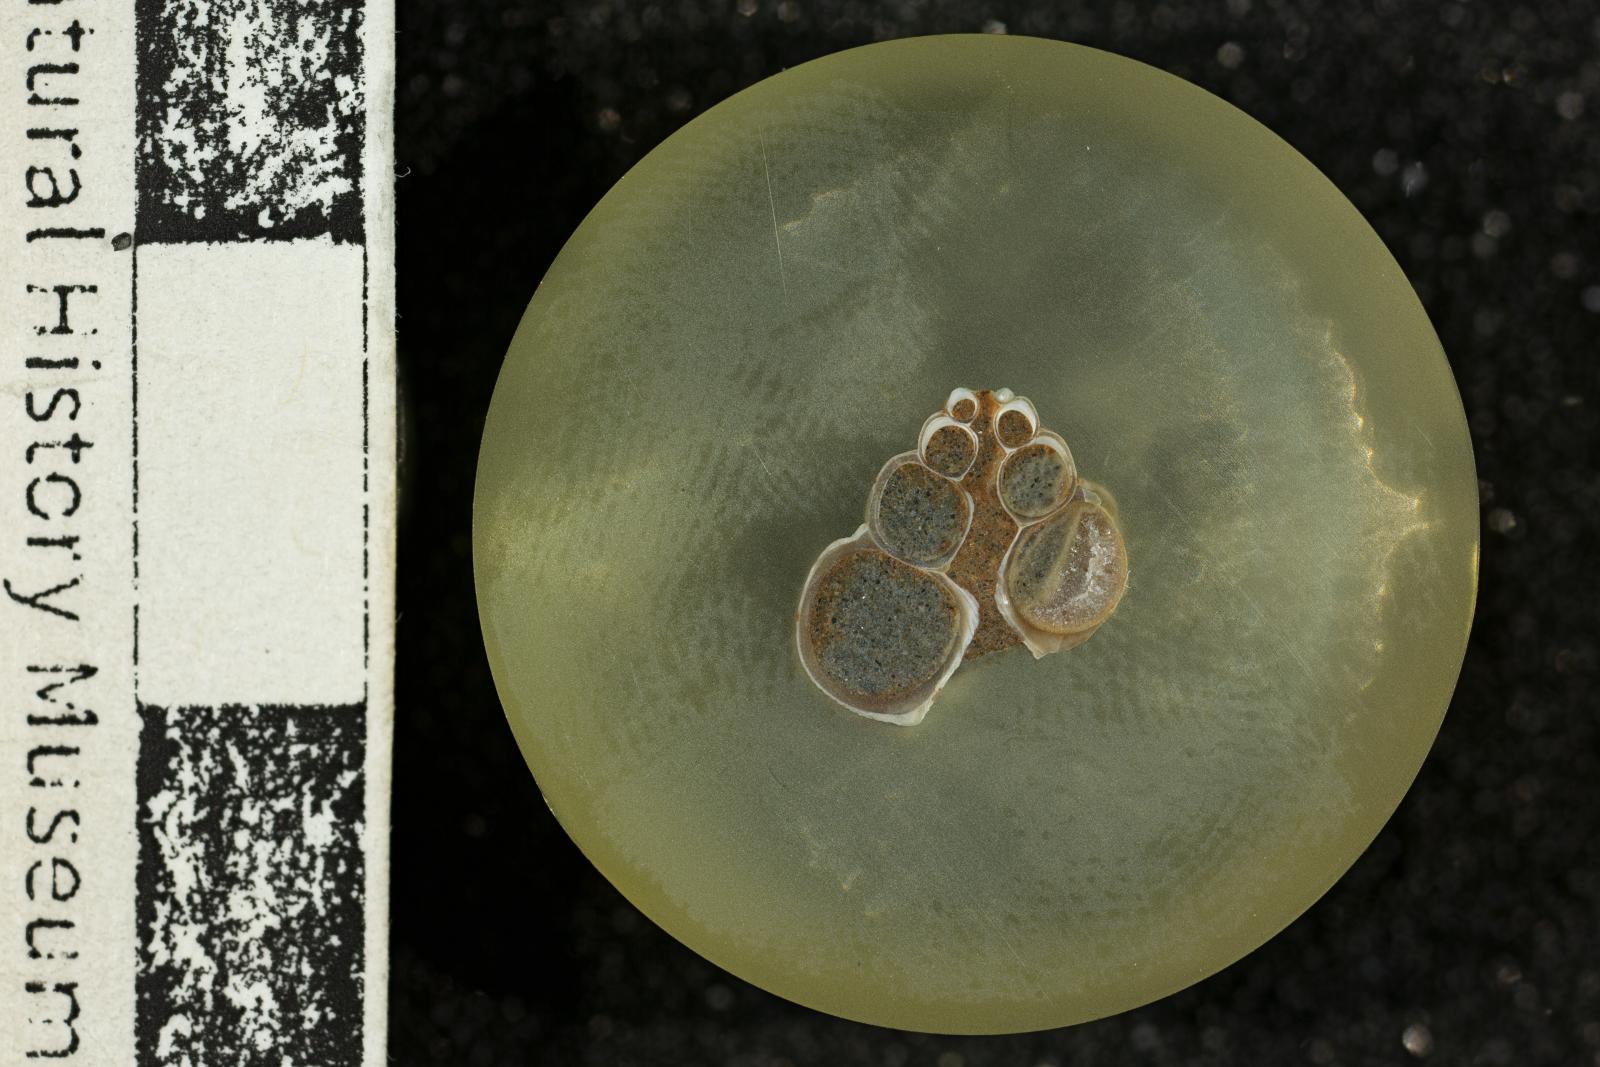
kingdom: Animalia
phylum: Mollusca
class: Gastropoda
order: Trochida
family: Turbinidae
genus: Igonoia
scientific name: Igonoia
